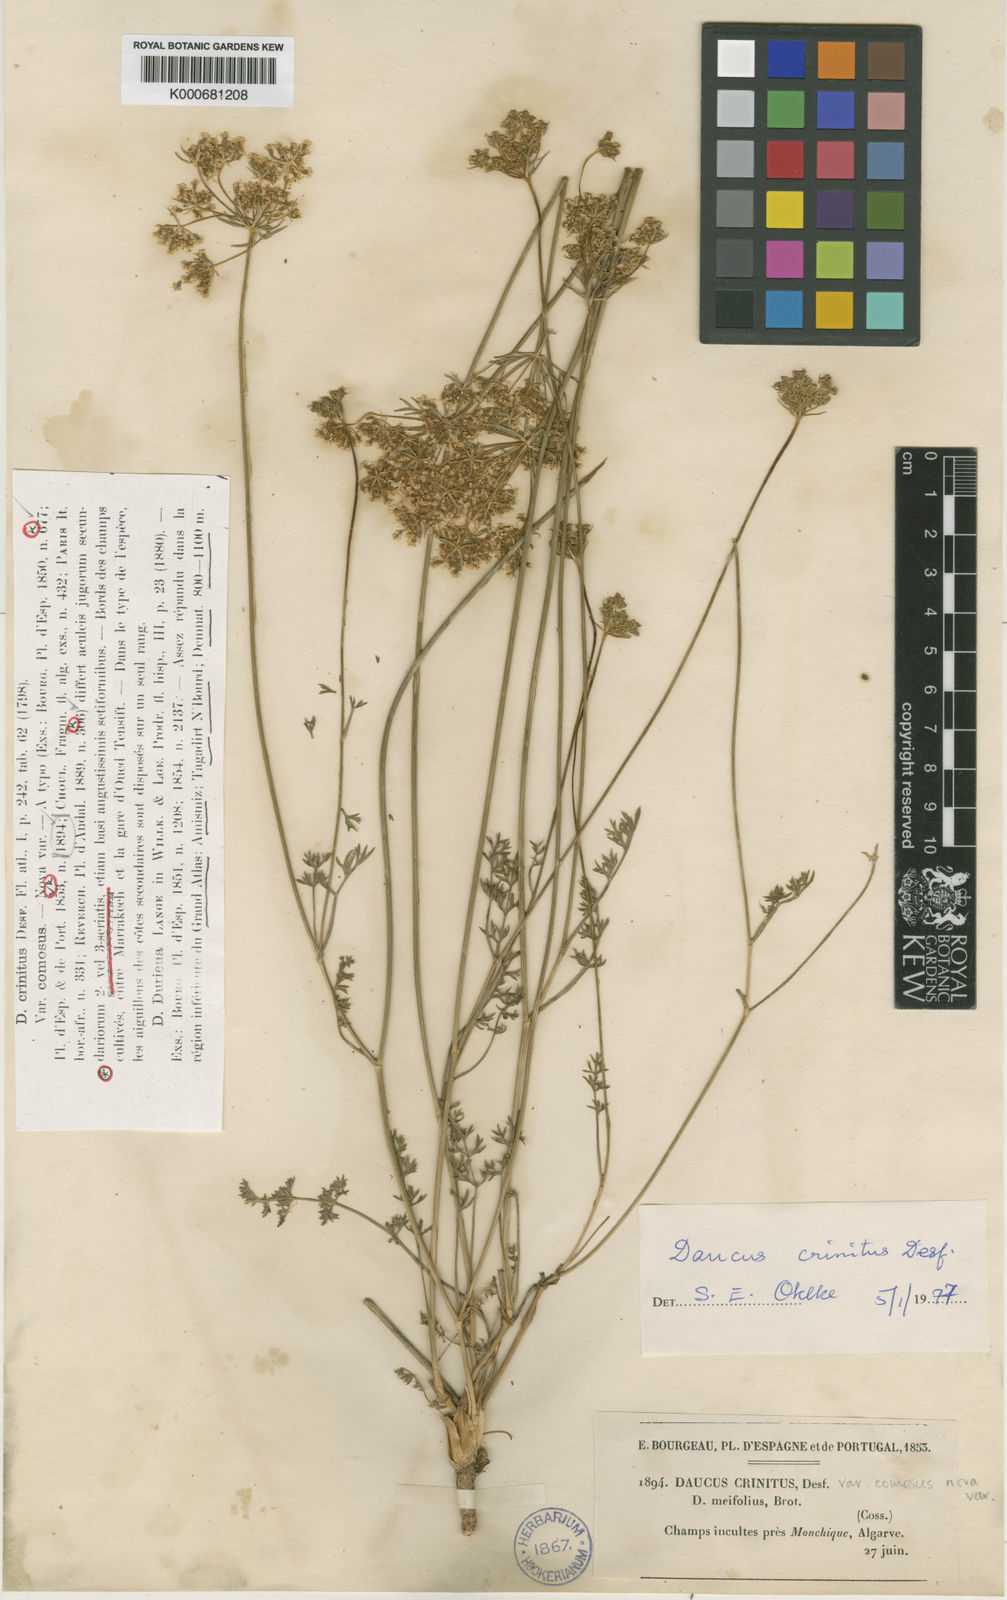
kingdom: Plantae
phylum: Tracheophyta
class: Magnoliopsida
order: Apiales
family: Apiaceae
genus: Daucus
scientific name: Daucus crinitus
